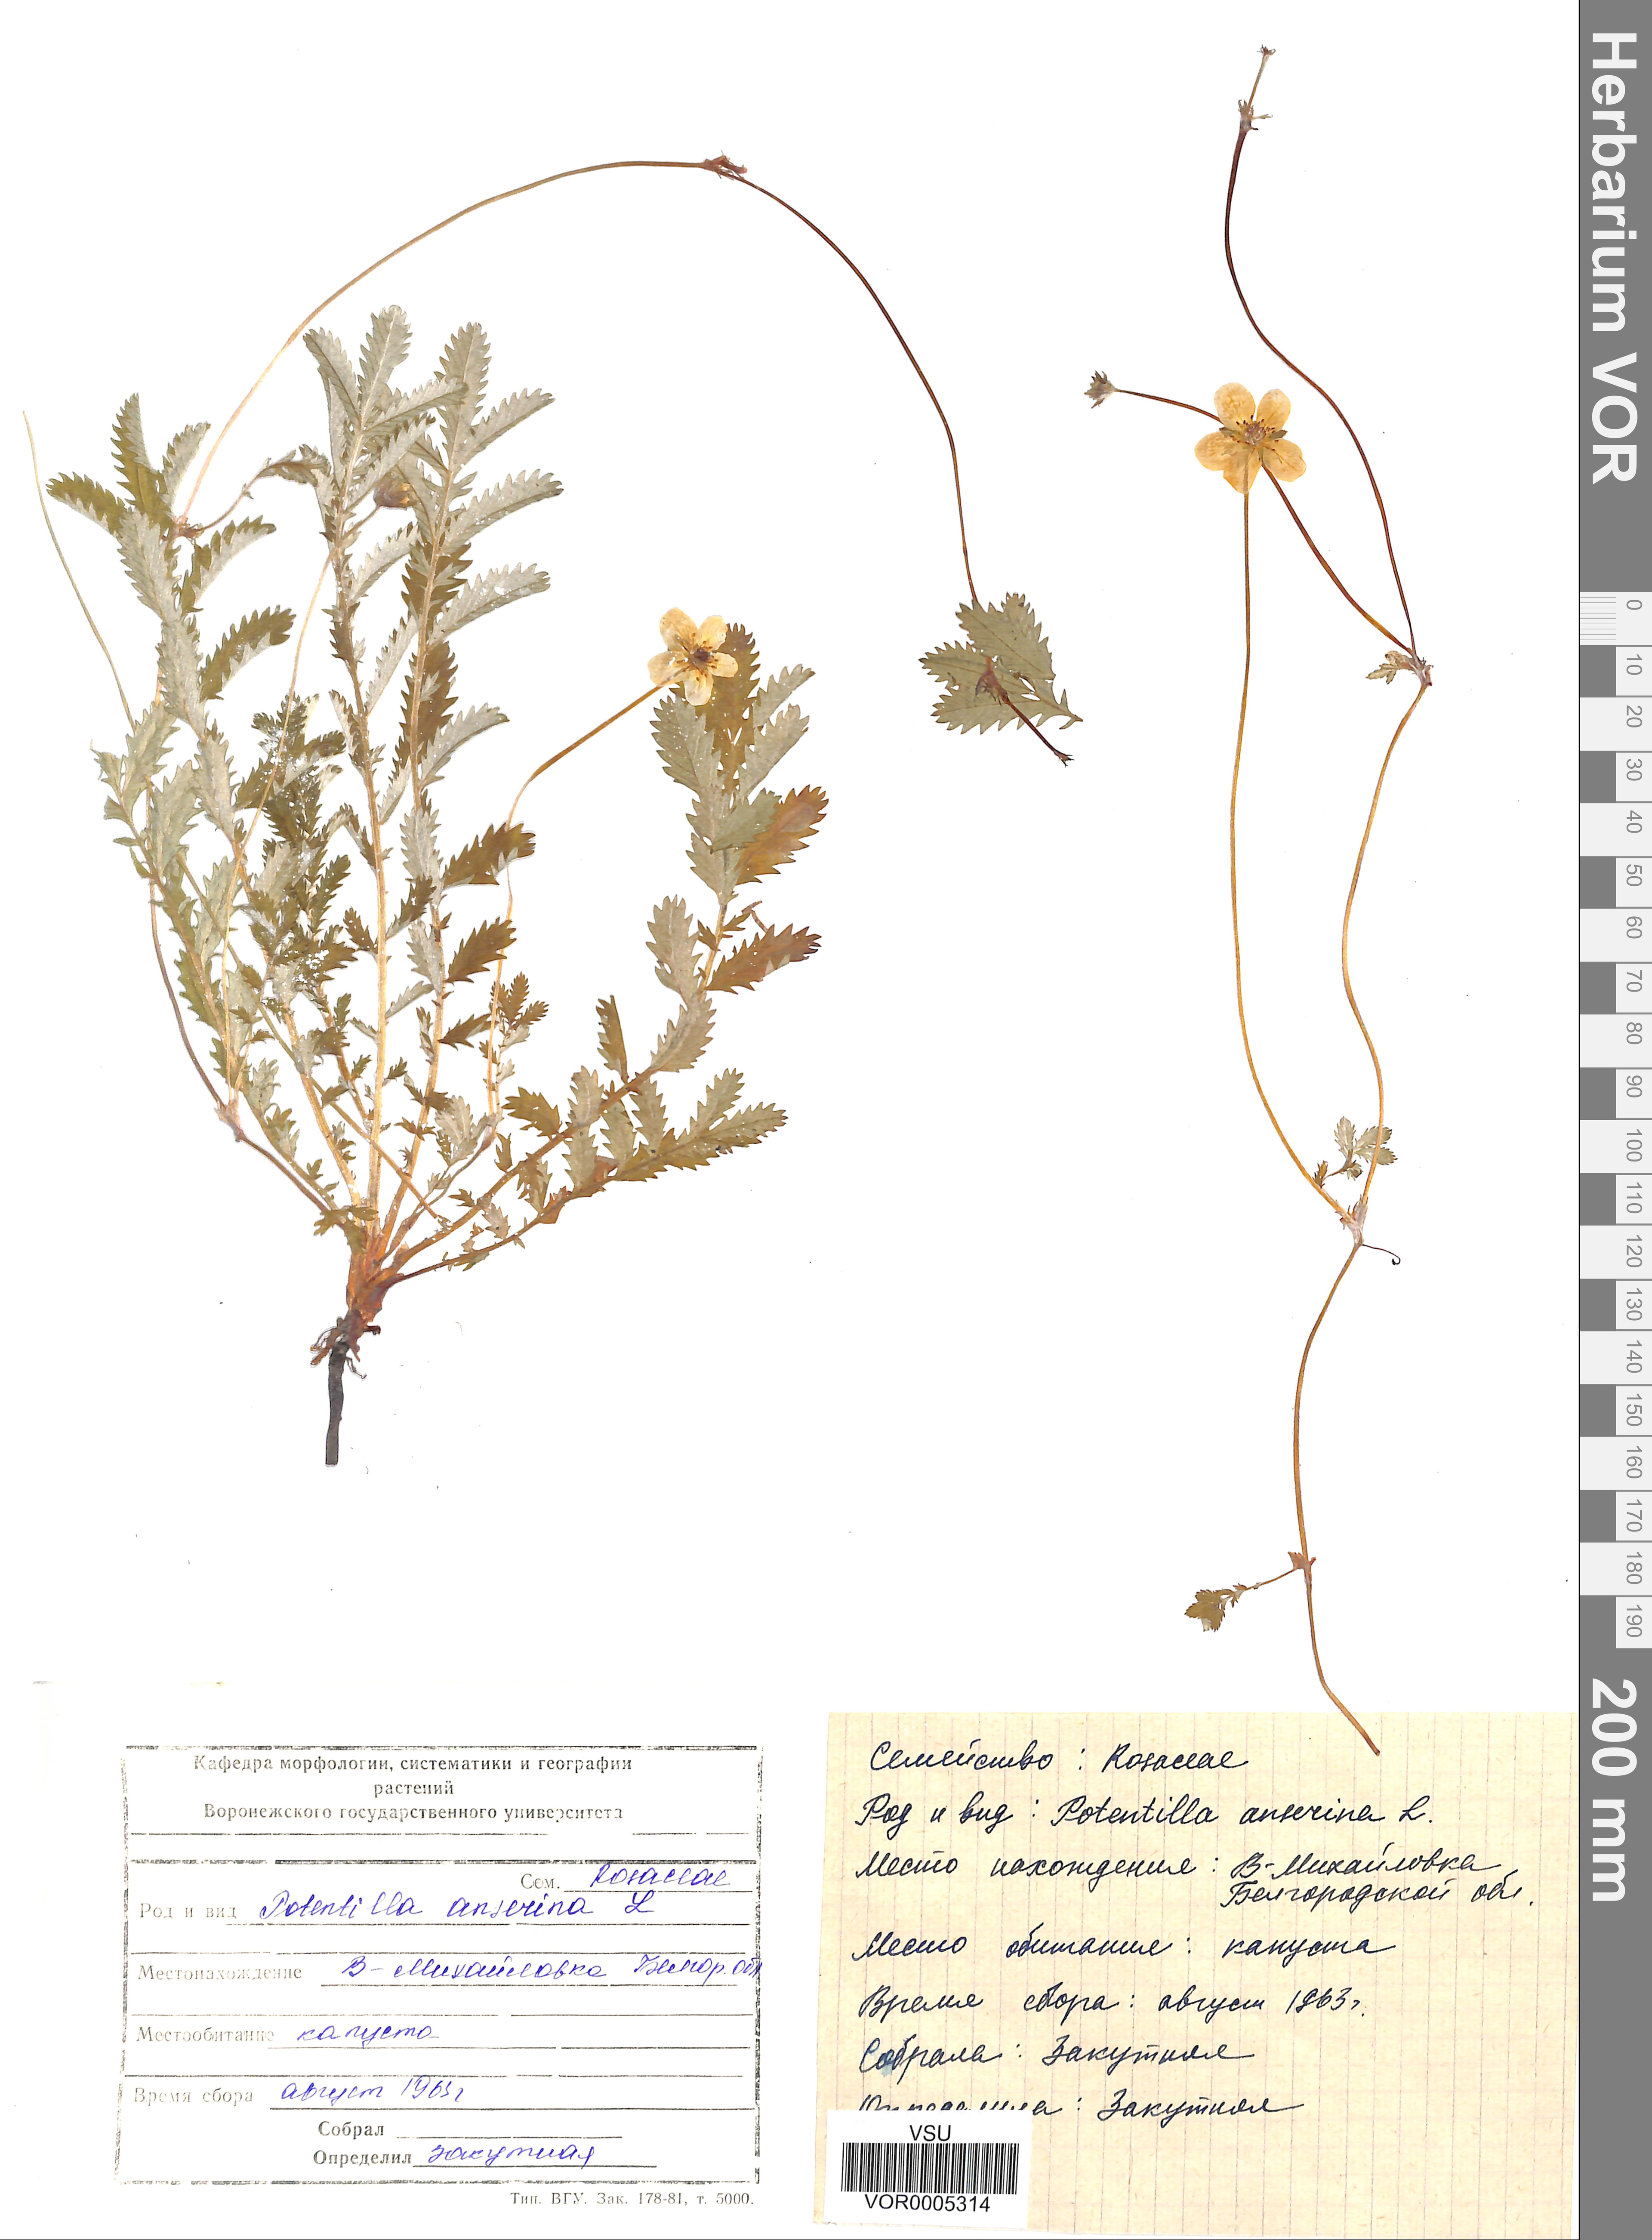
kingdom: Plantae
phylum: Tracheophyta
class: Magnoliopsida
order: Rosales
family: Rosaceae
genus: Argentina
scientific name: Argentina anserina
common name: Common silverweed
